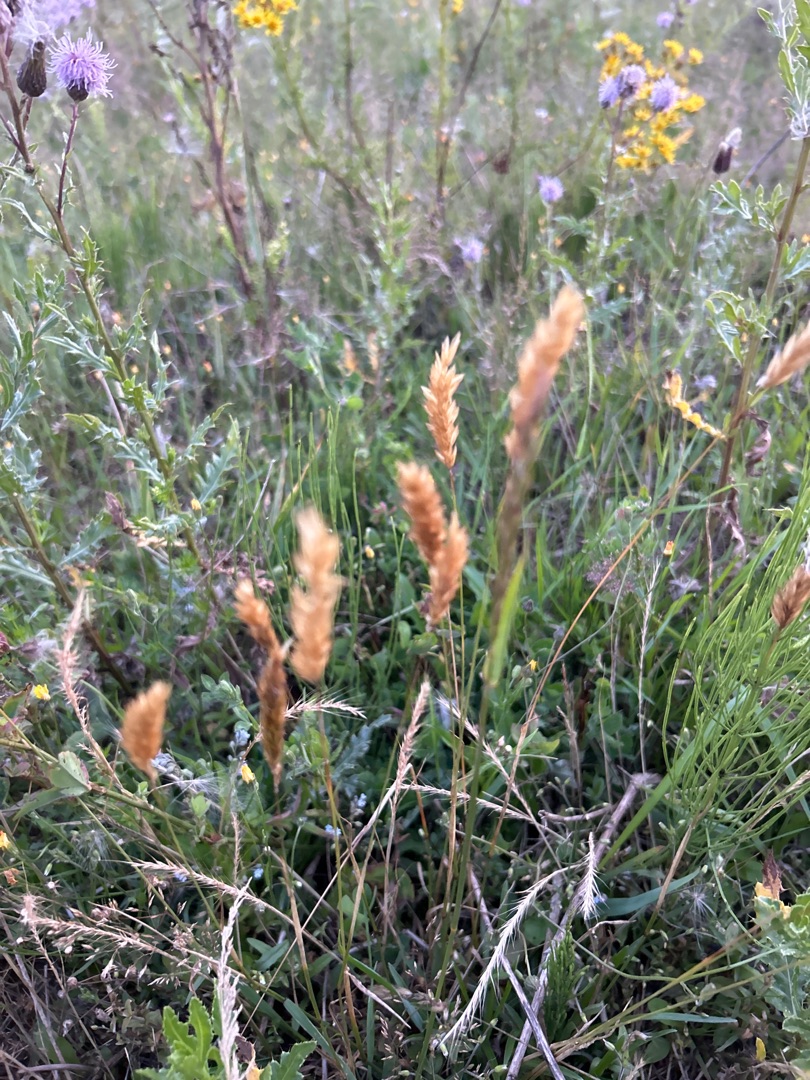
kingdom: Plantae
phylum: Tracheophyta
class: Liliopsida
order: Poales
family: Poaceae
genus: Anthoxanthum
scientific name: Anthoxanthum odoratum
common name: Vellugtende gulaks
